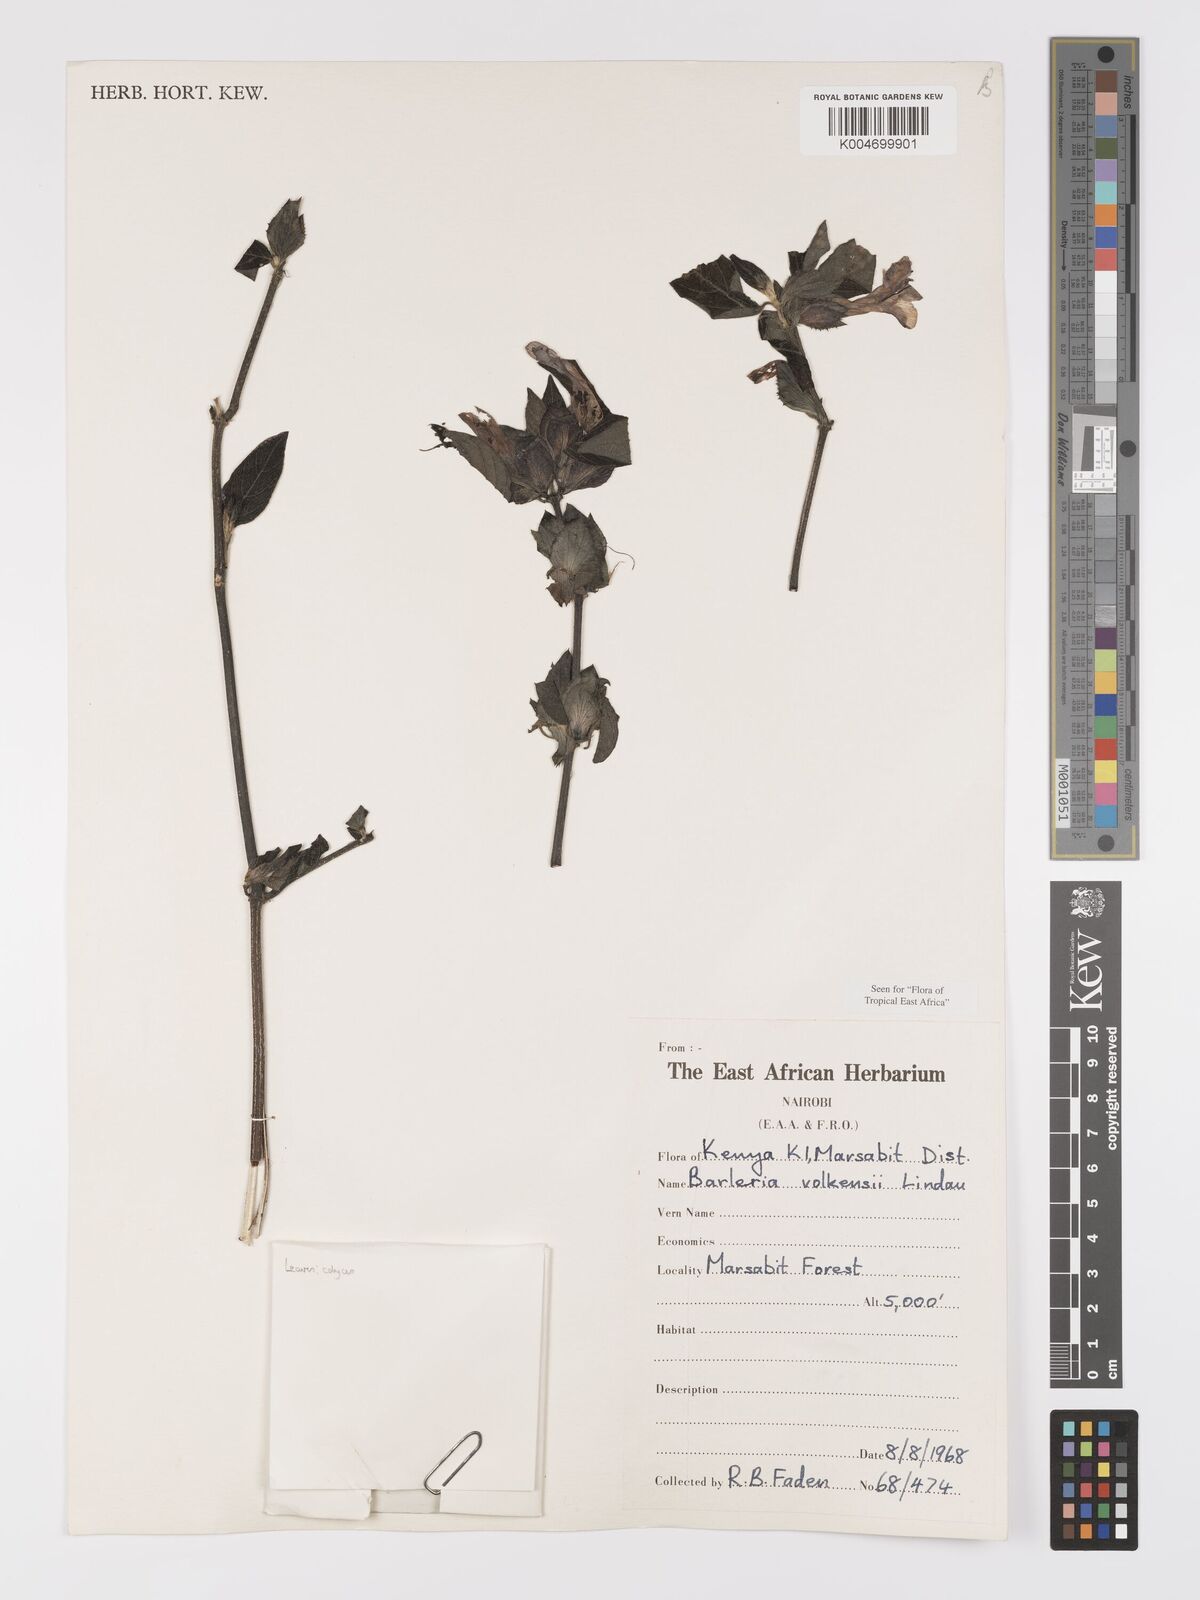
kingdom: Plantae
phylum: Tracheophyta
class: Magnoliopsida
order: Lamiales
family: Acanthaceae
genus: Barleria
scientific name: Barleria volkensii
